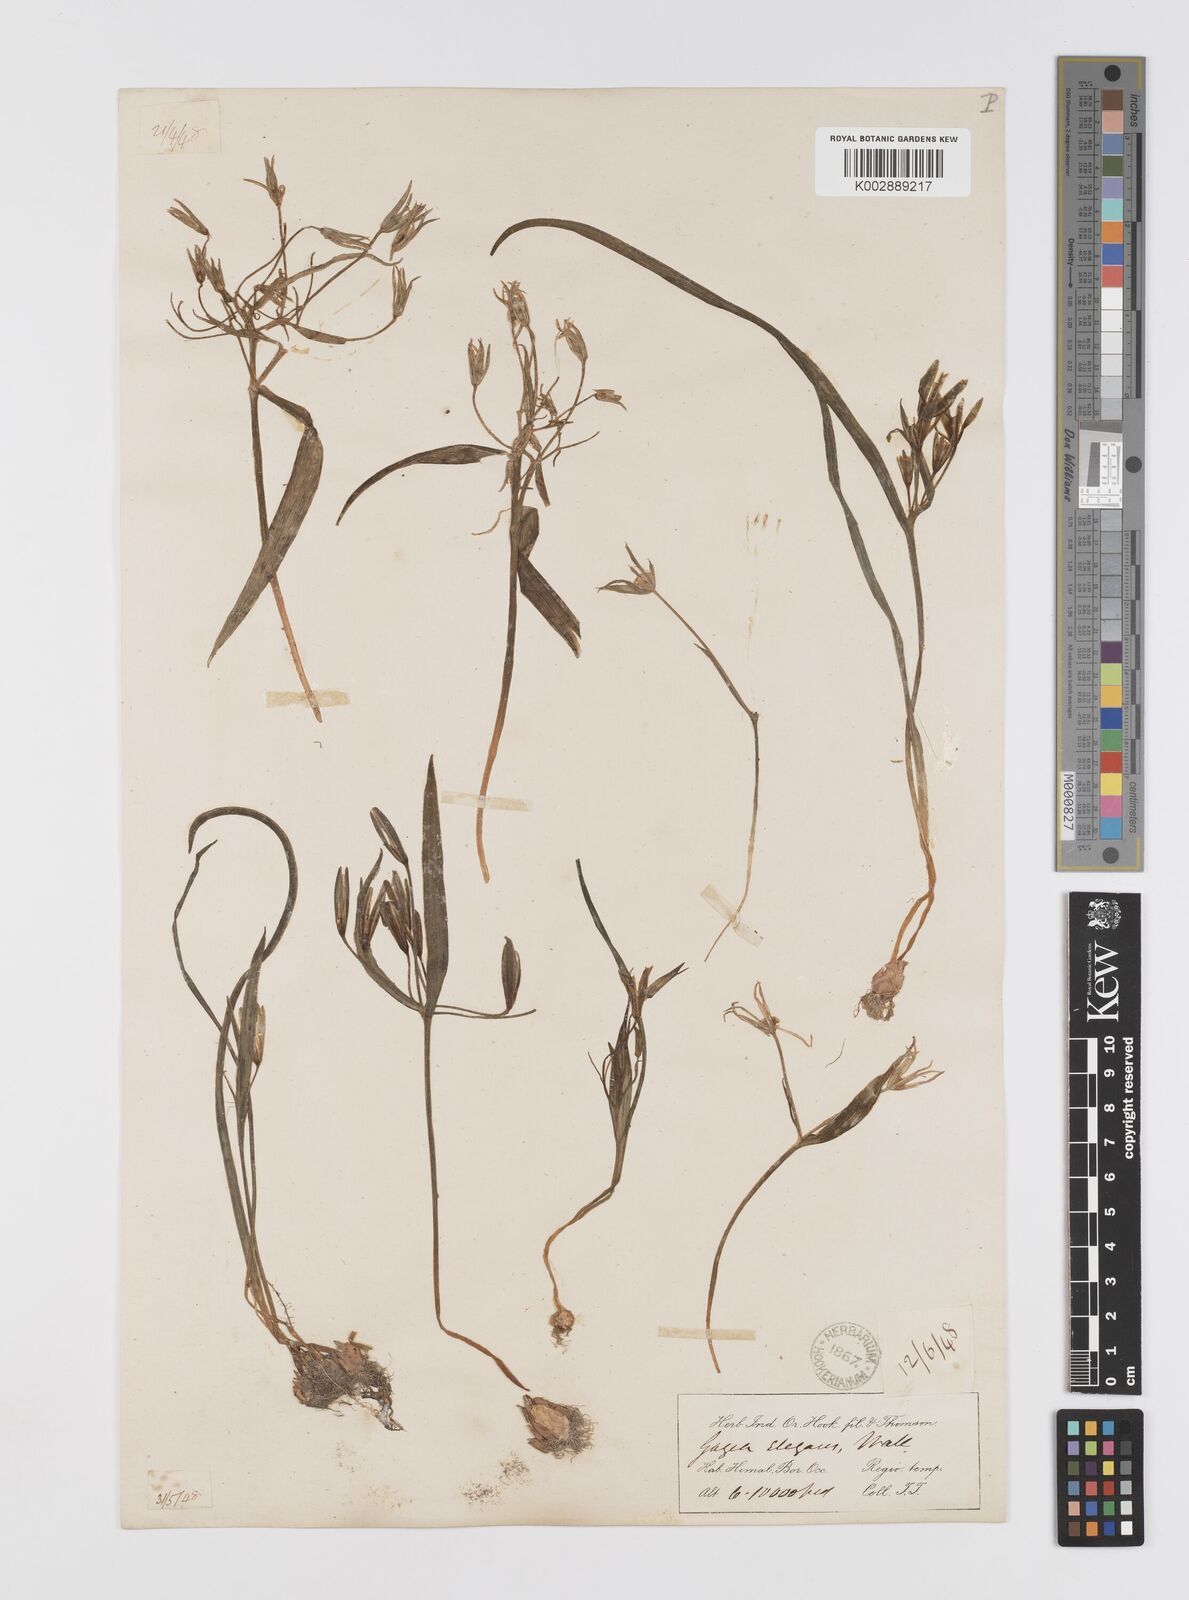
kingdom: Plantae
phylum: Tracheophyta
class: Liliopsida
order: Liliales
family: Liliaceae
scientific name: Liliaceae
